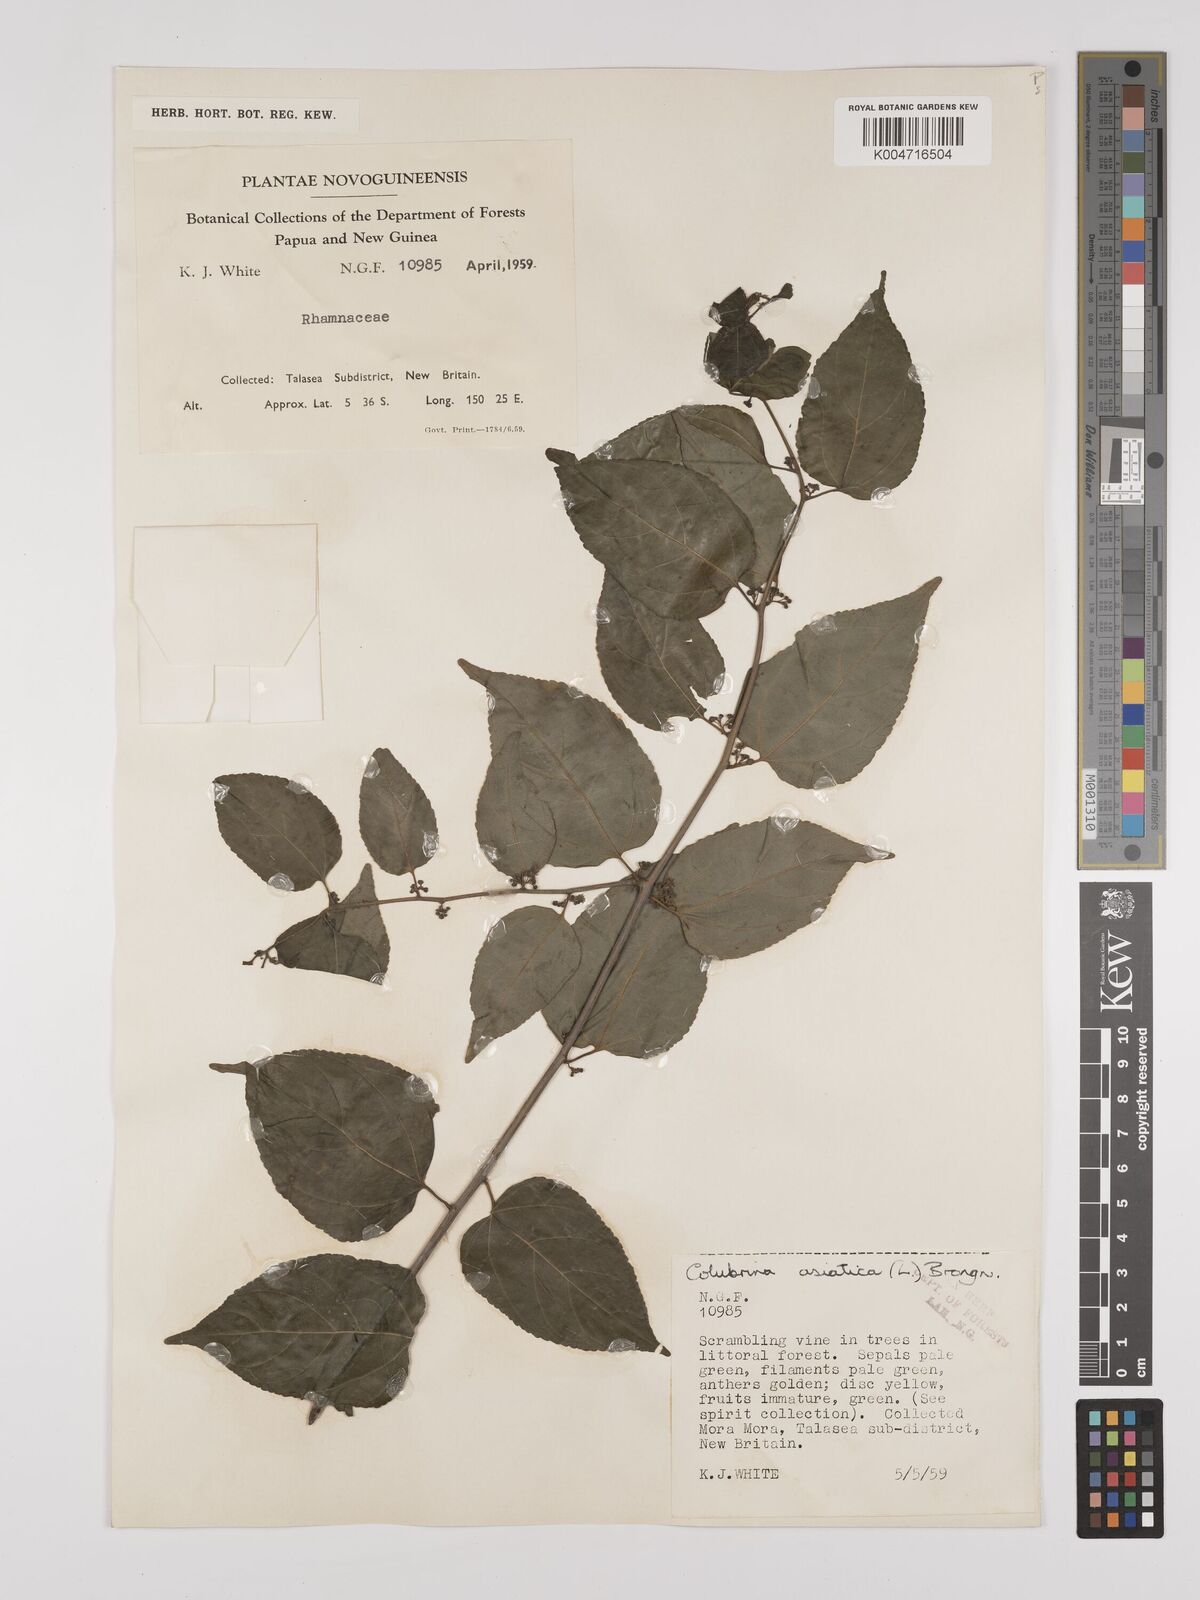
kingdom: Plantae
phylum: Tracheophyta
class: Magnoliopsida
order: Rosales
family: Rhamnaceae
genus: Colubrina
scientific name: Colubrina asiatica
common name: Asian nakedwood
